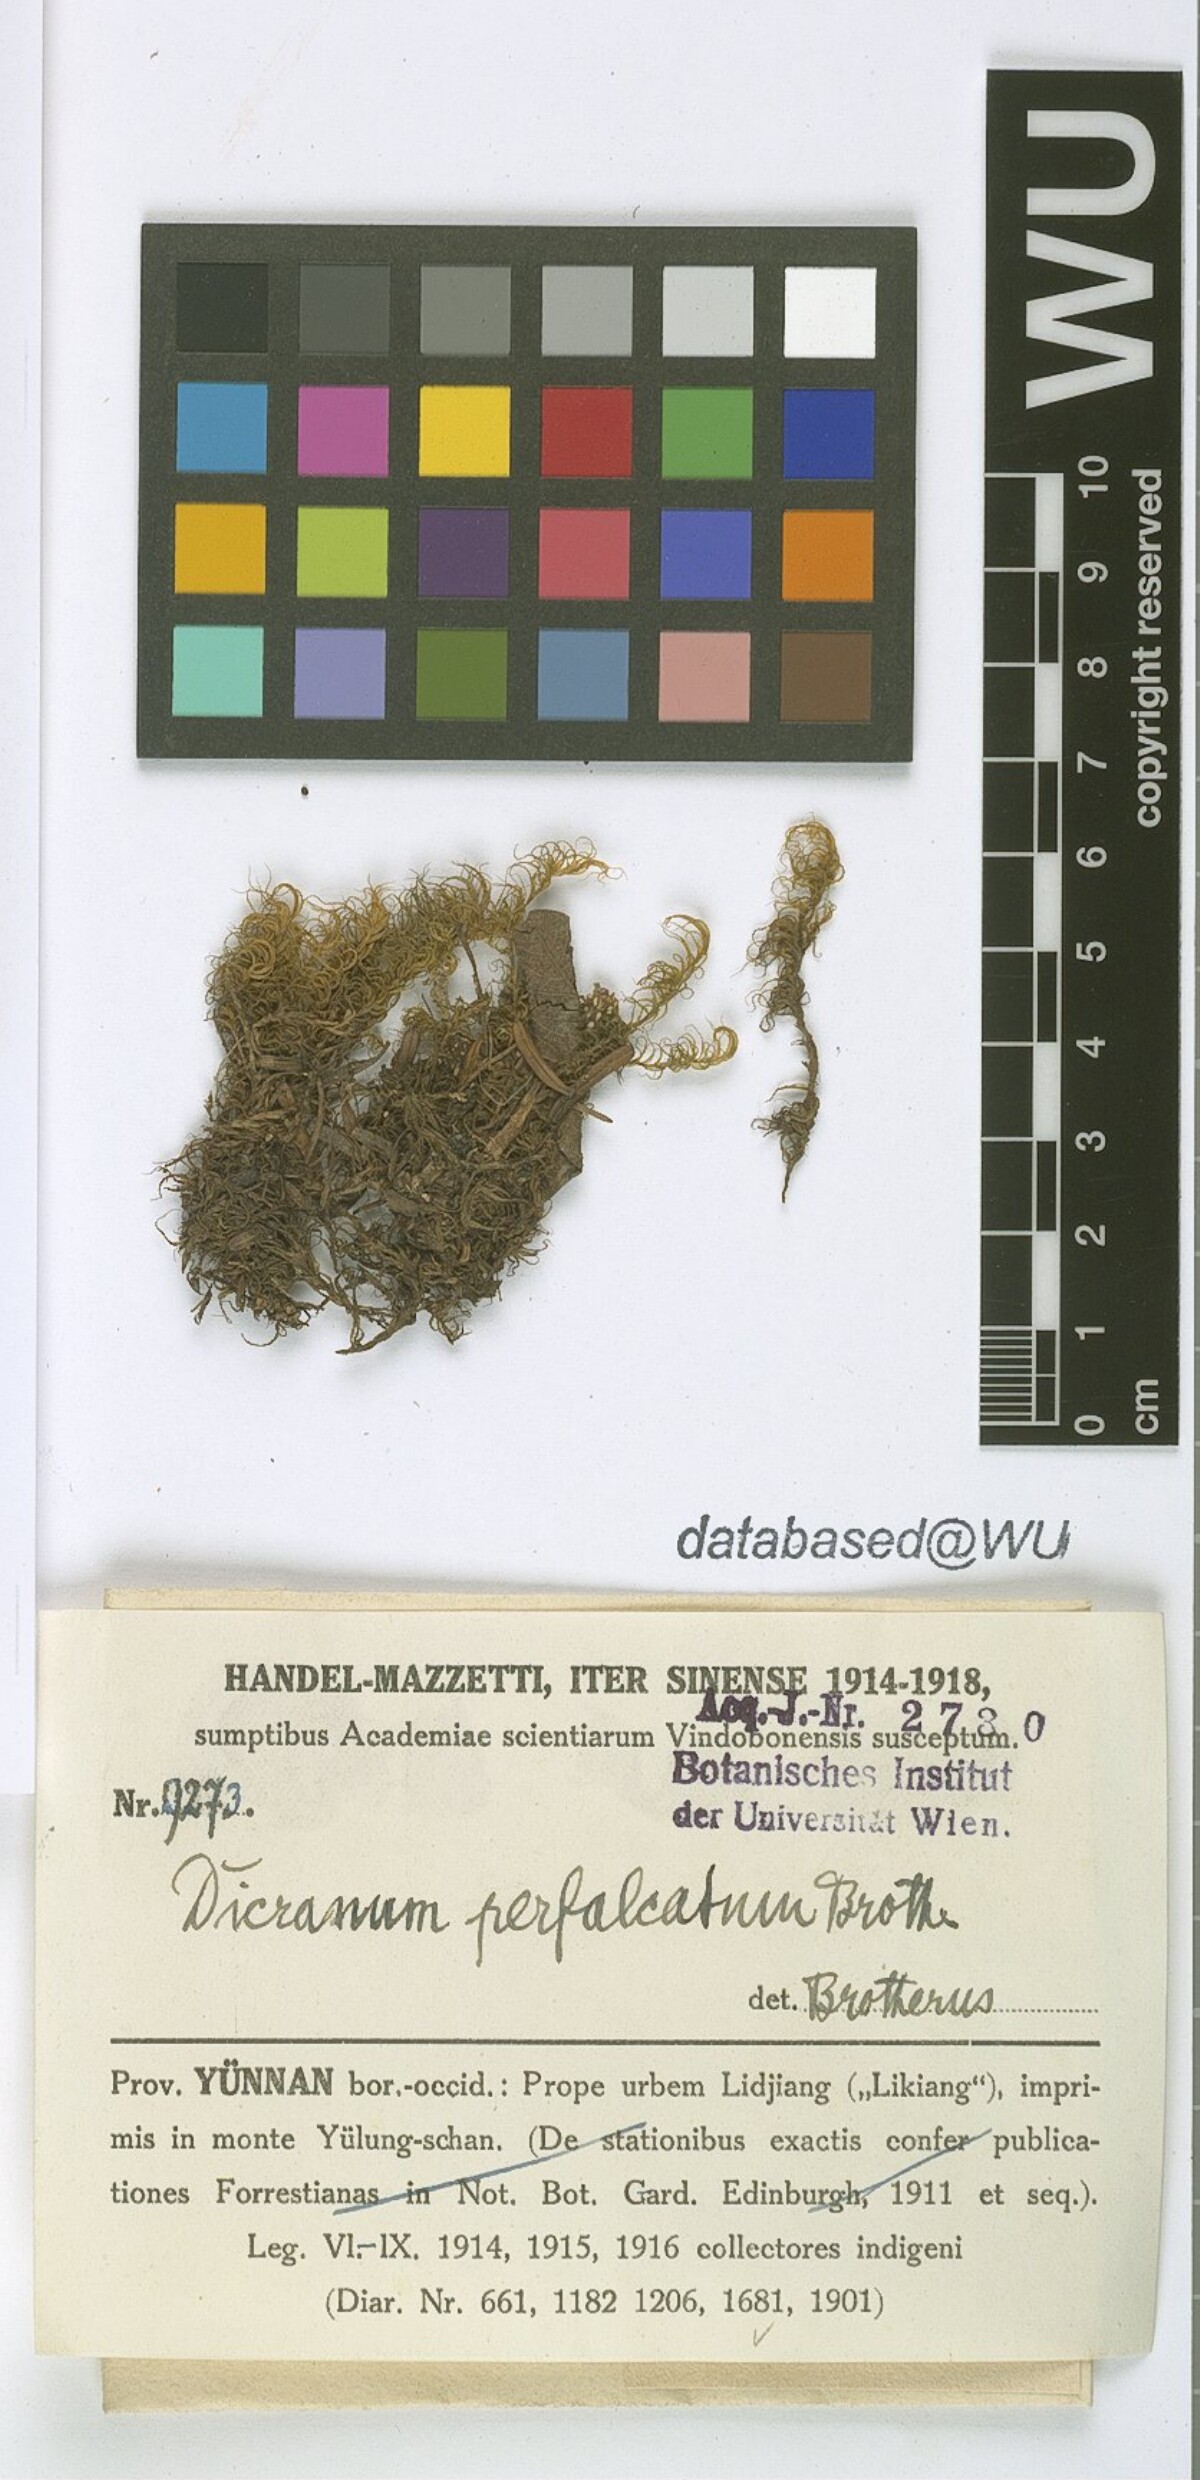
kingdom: Plantae
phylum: Bryophyta
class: Bryopsida
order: Dicranales
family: Dicranaceae
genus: Dicranum
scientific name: Dicranum drummondii
